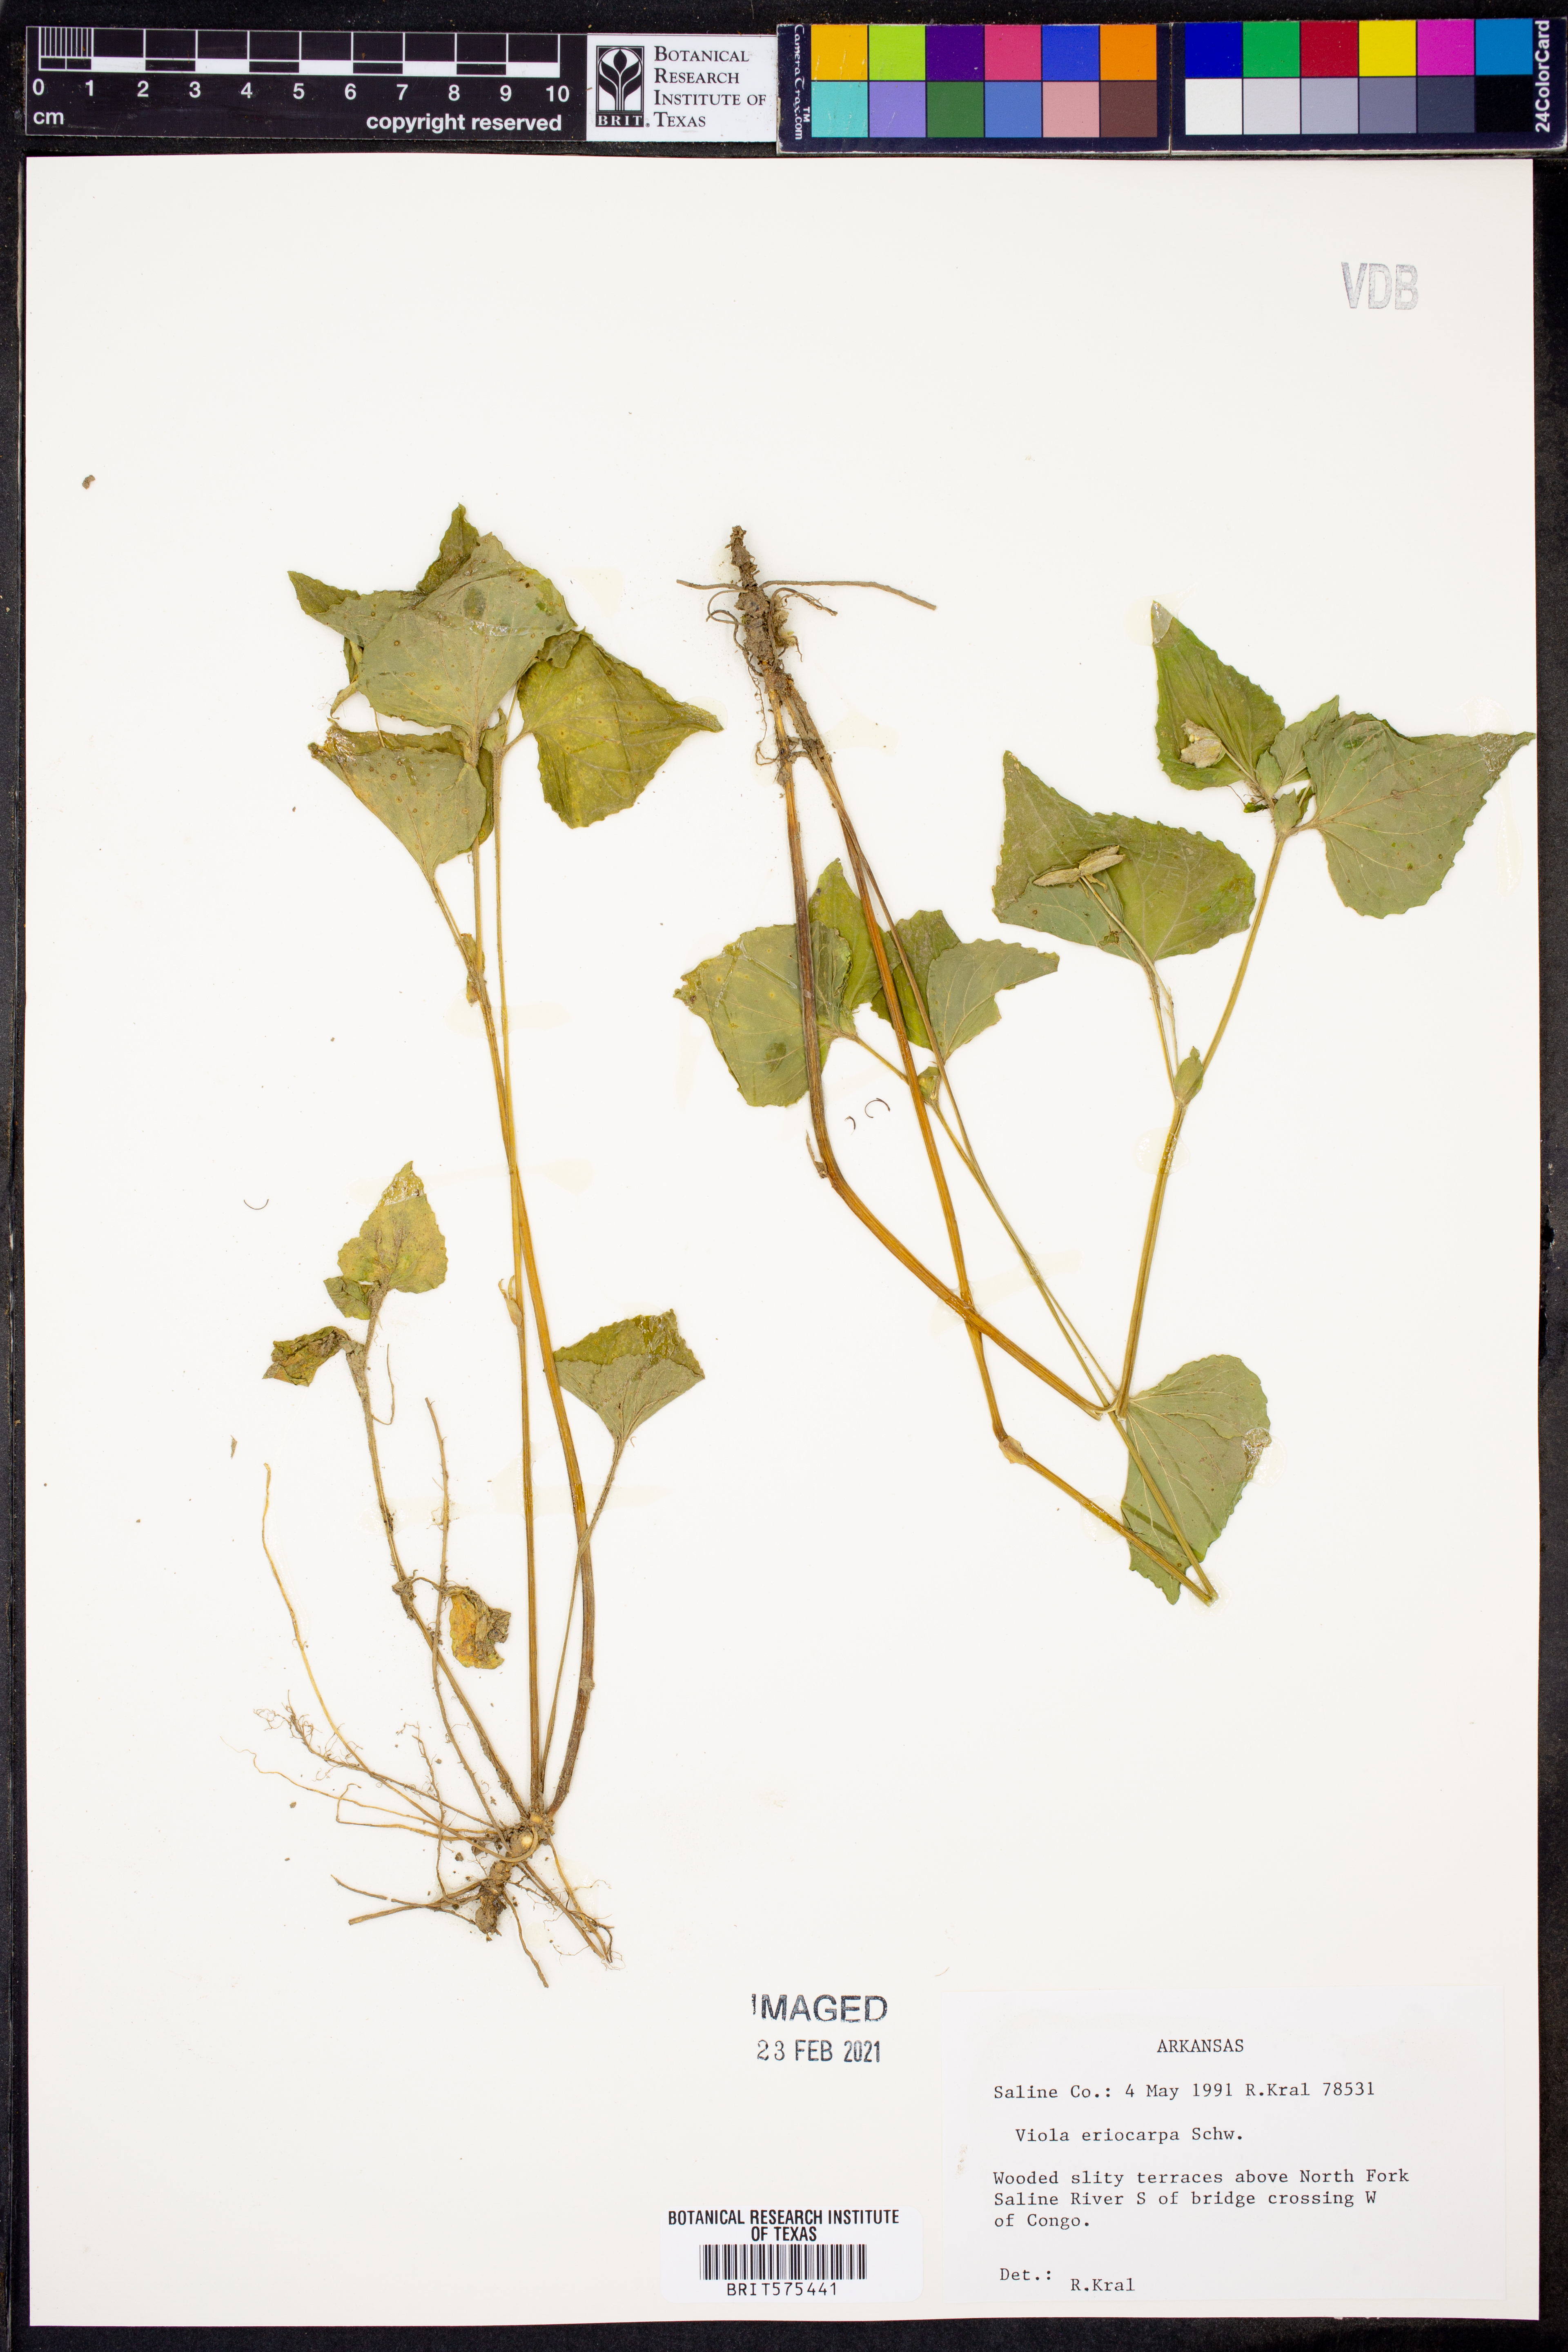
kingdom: Plantae
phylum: Tracheophyta
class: Magnoliopsida
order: Malpighiales
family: Violaceae
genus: Viola
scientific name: Viola eriocarpa
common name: Smooth yellow violet
